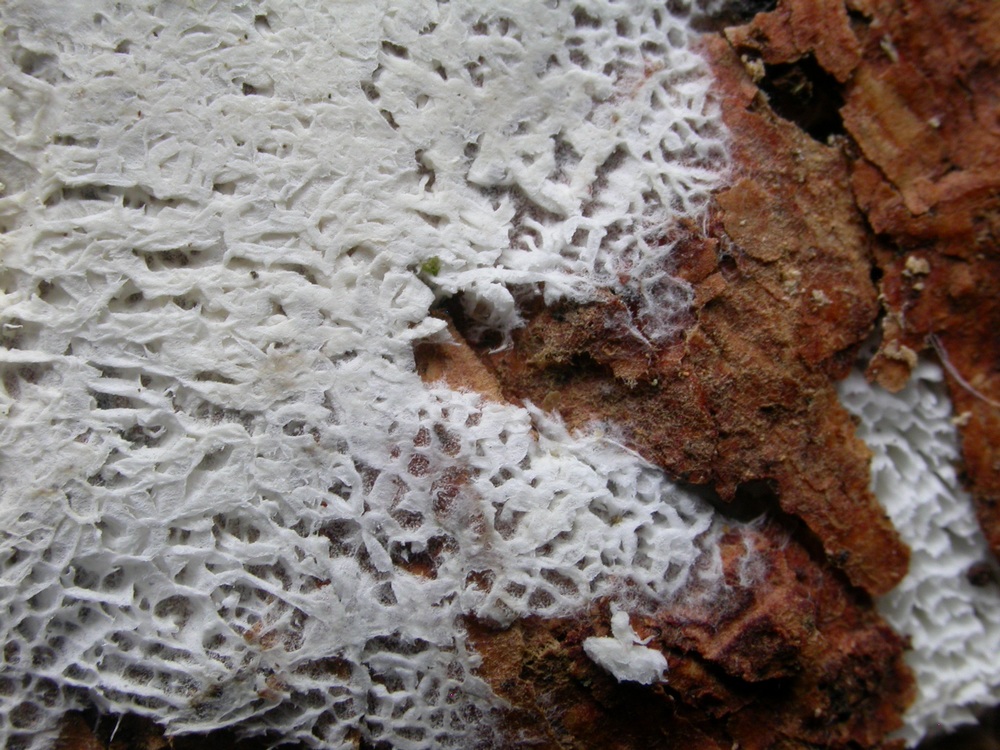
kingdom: Fungi
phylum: Basidiomycota
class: Agaricomycetes
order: Trechisporales
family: Sistotremataceae
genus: Trechispora
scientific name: Trechispora mollusca
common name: pyramide-vathinde
